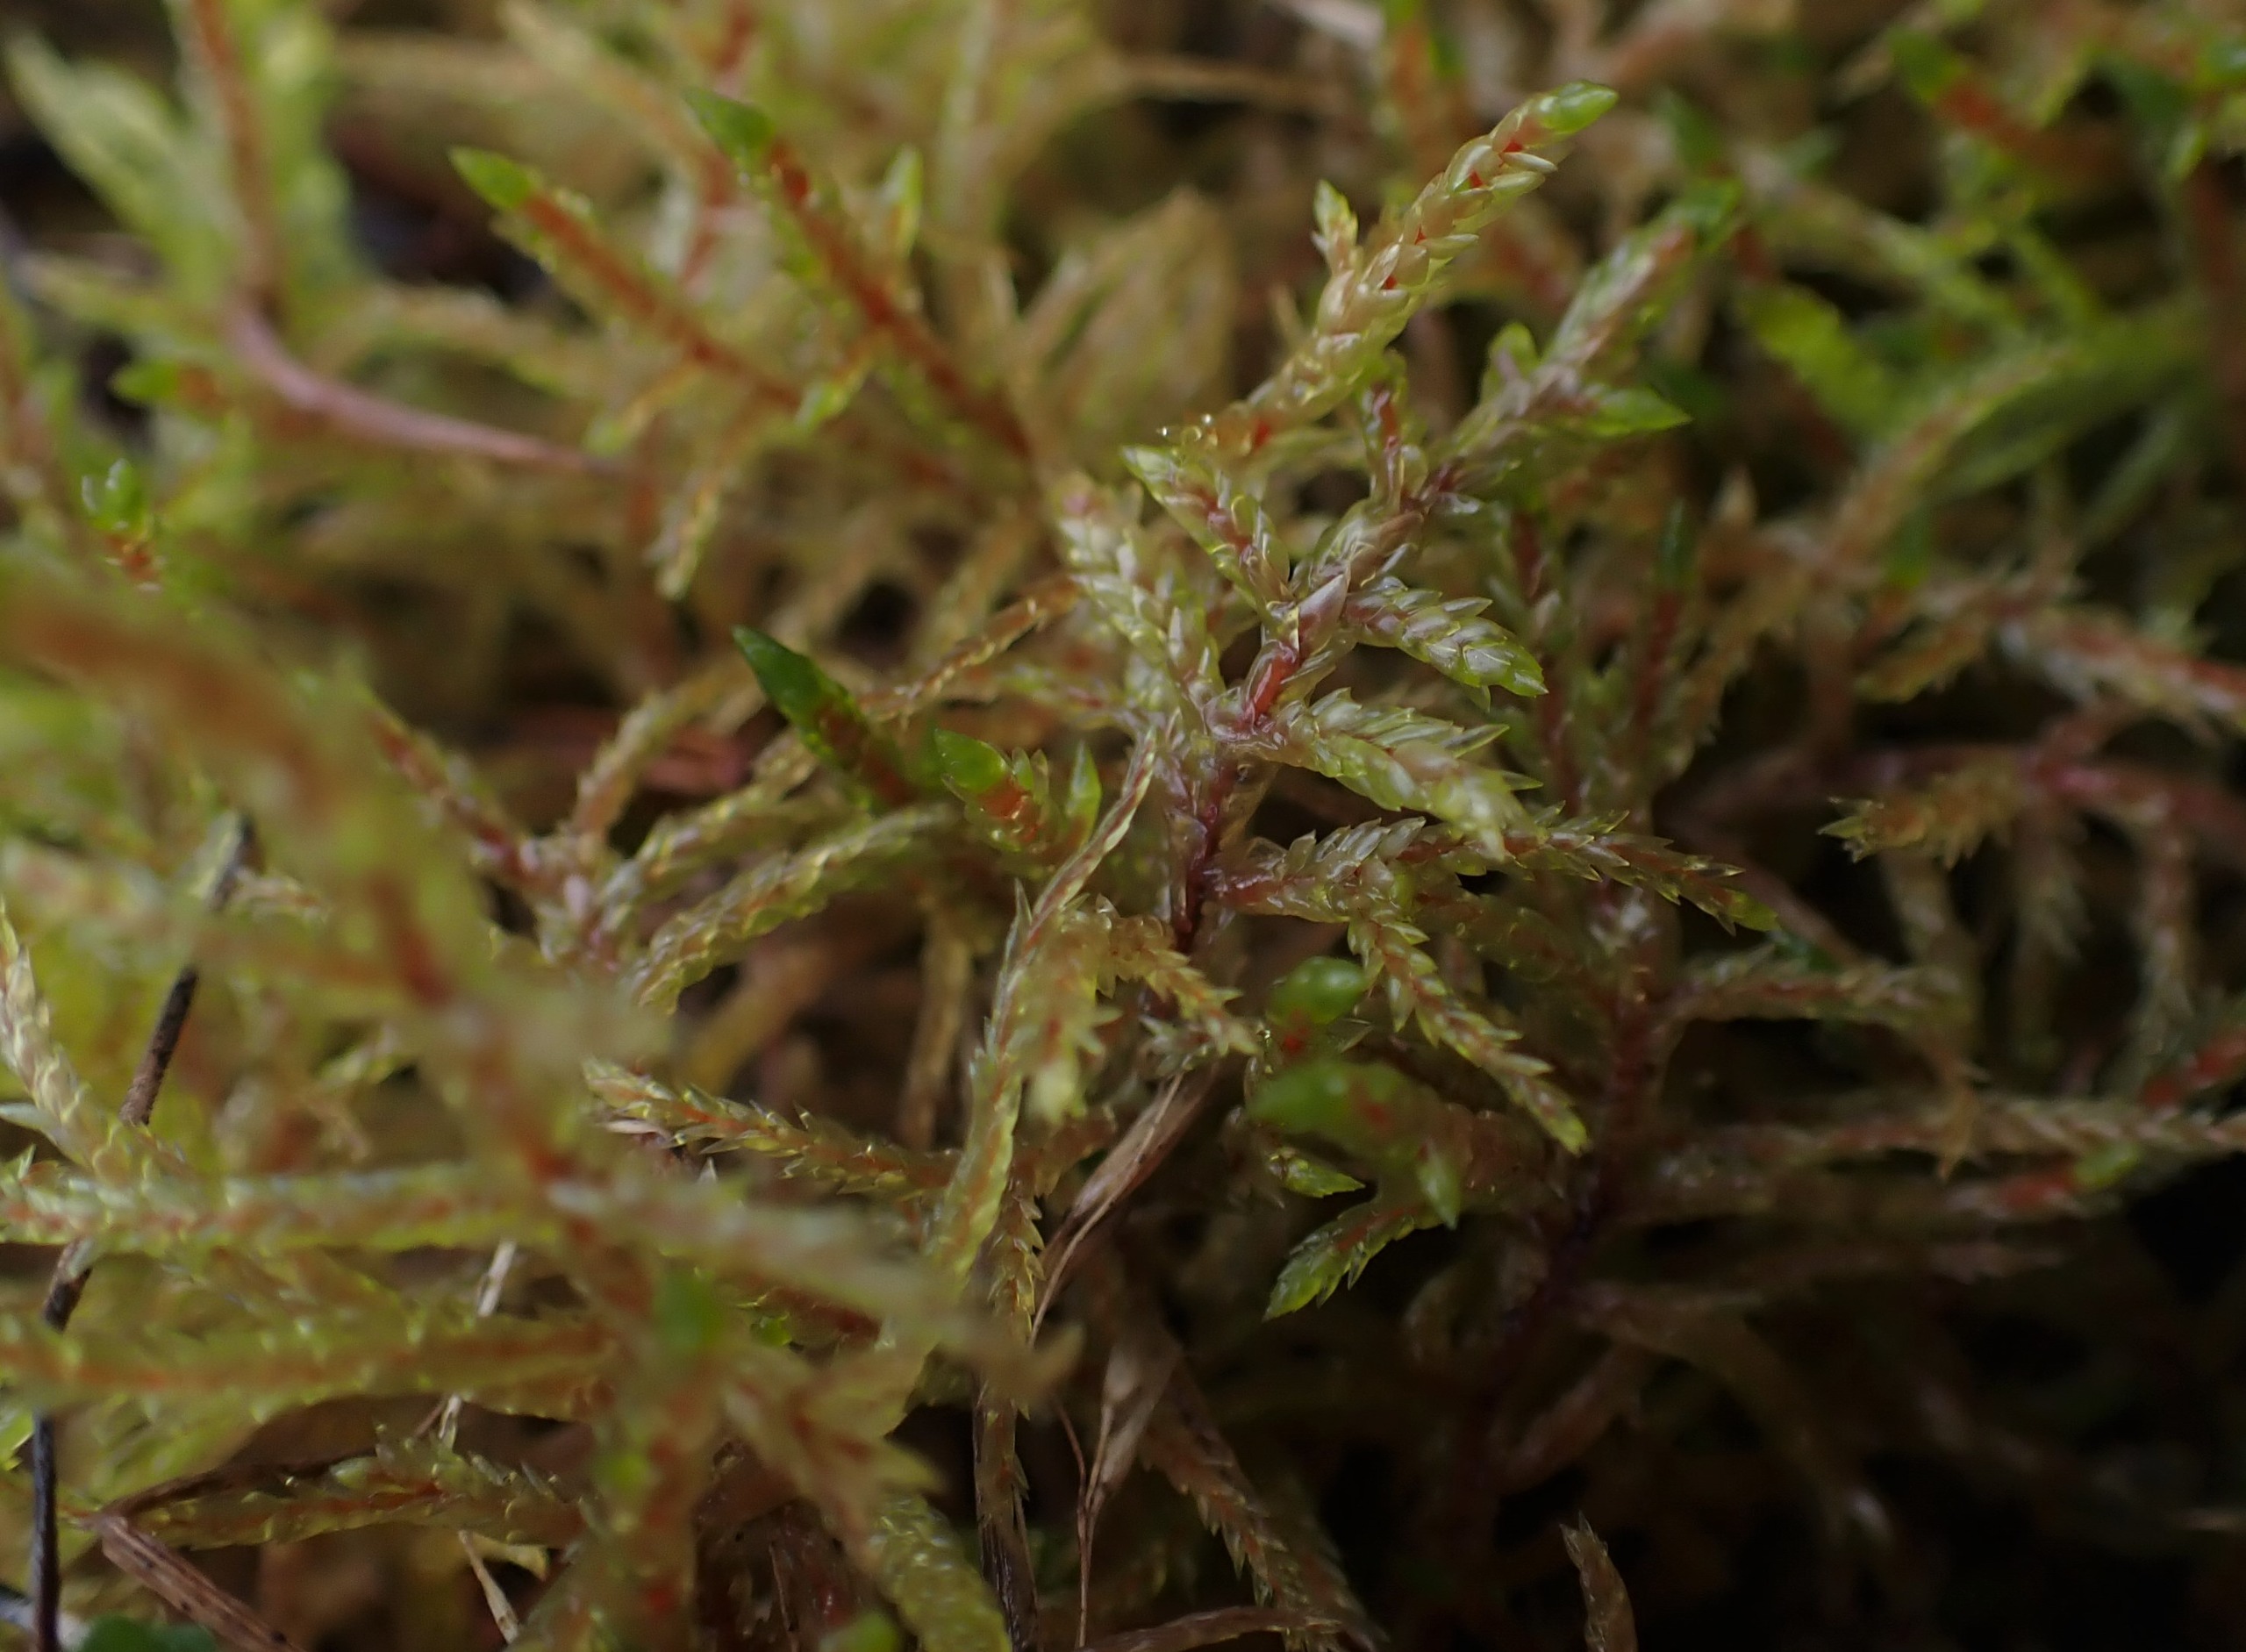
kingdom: Plantae
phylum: Bryophyta
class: Bryopsida
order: Hypnales
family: Hylocomiaceae
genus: Pleurozium
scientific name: Pleurozium schreberi
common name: Trind fyrremos
